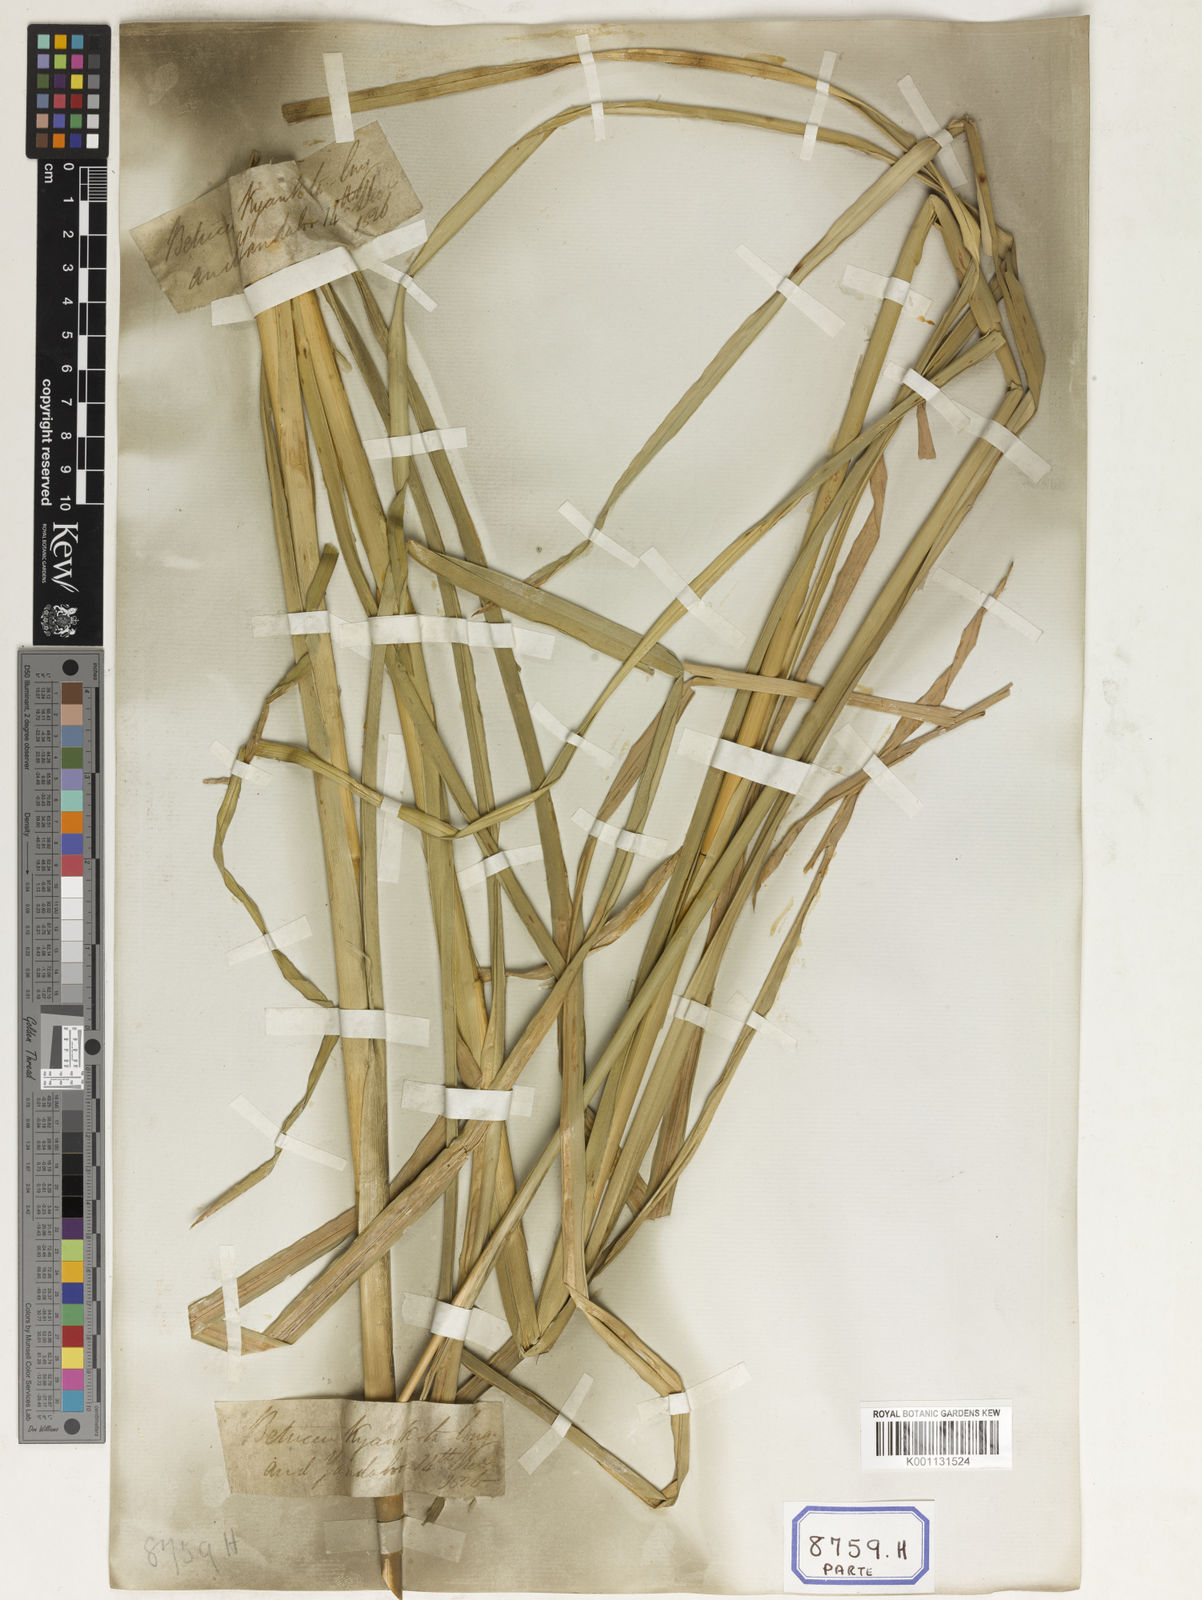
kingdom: Plantae
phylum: Tracheophyta
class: Liliopsida
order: Poales
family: Poaceae
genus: Chrysopogon
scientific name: Chrysopogon zizanioides
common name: False beardgrass
